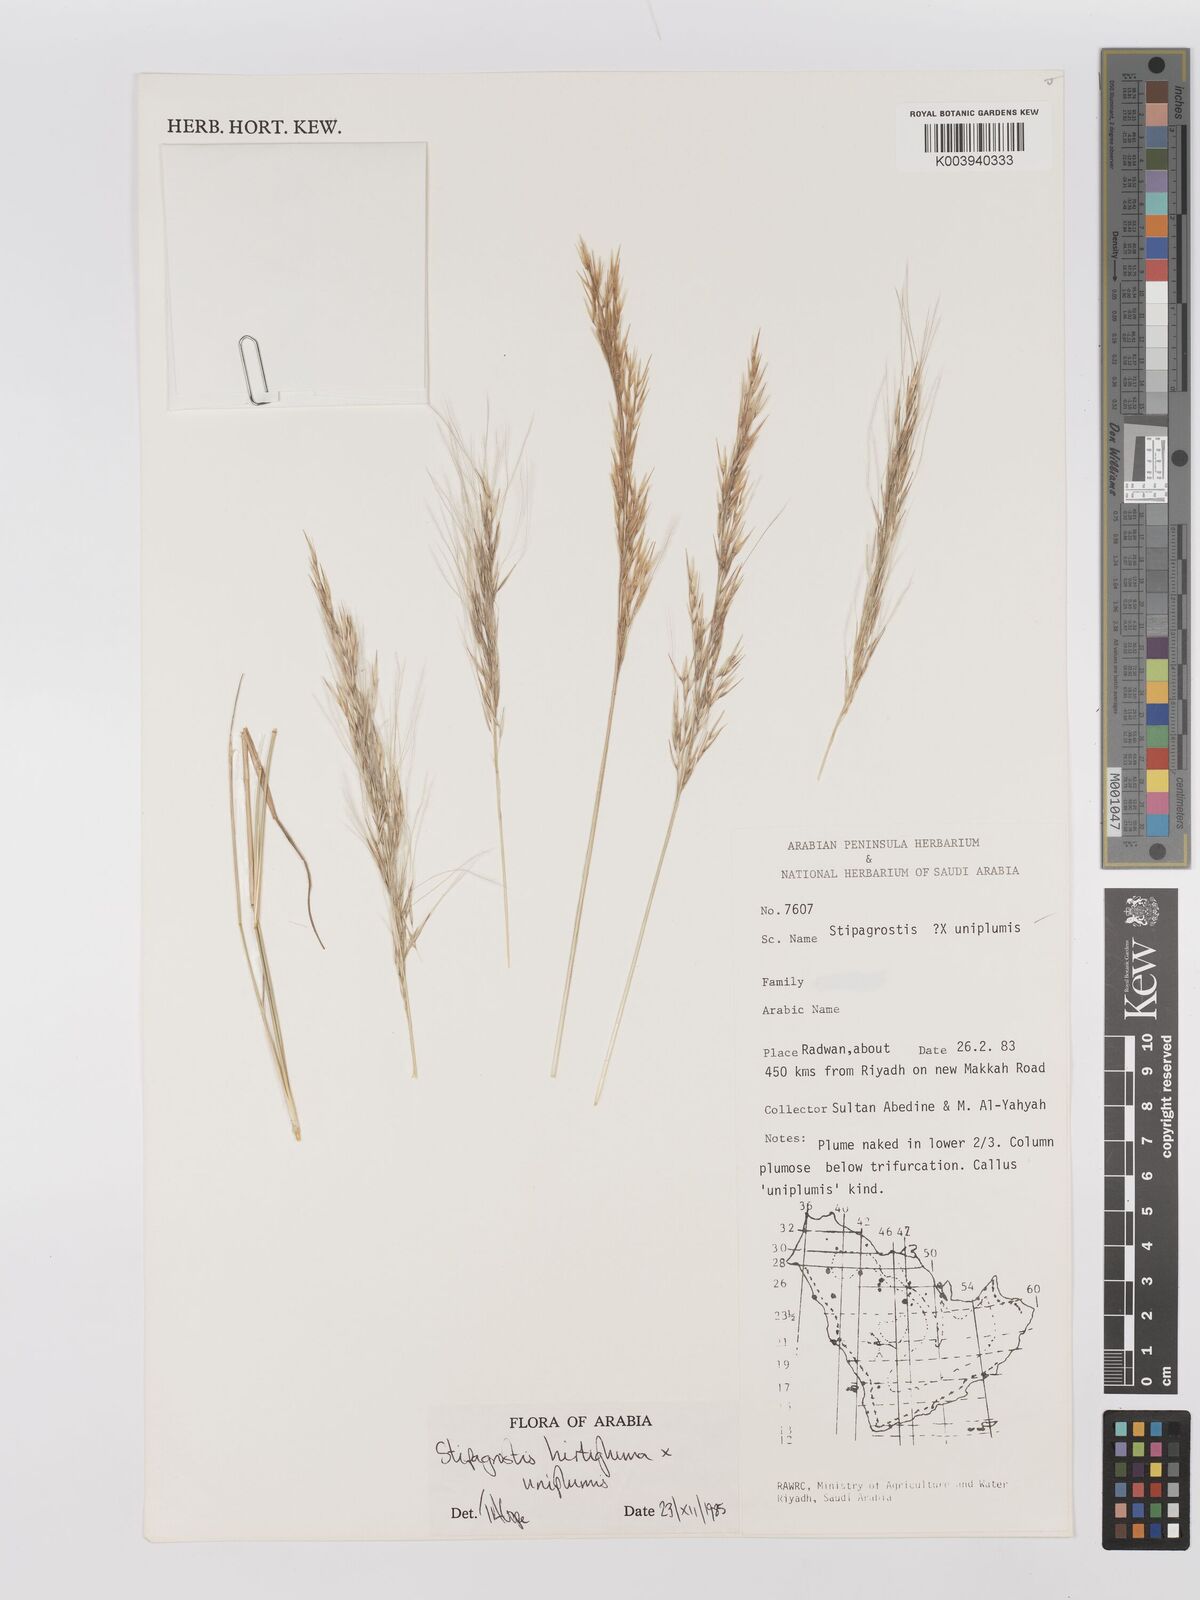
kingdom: Plantae
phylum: Tracheophyta
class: Liliopsida
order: Poales
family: Poaceae
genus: Stipagrostis
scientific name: Stipagrostis hirtigluma
